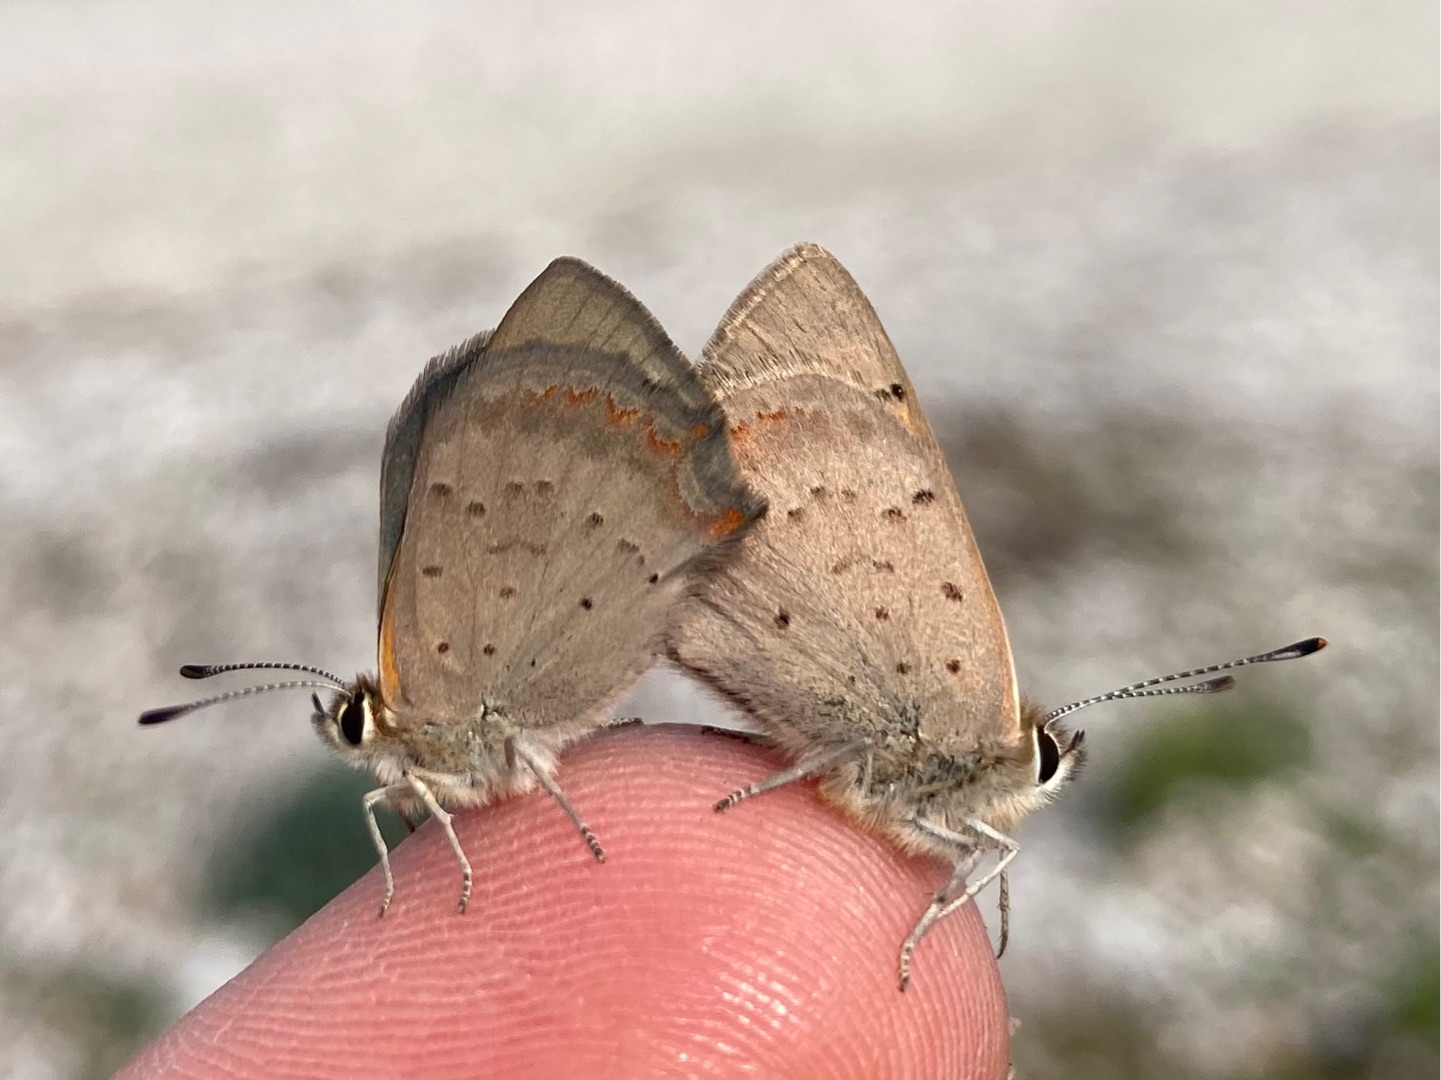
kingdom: Animalia
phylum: Arthropoda
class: Insecta
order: Lepidoptera
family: Lycaenidae
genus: Lycaena
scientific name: Lycaena phlaeas
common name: Lille ildfugl
